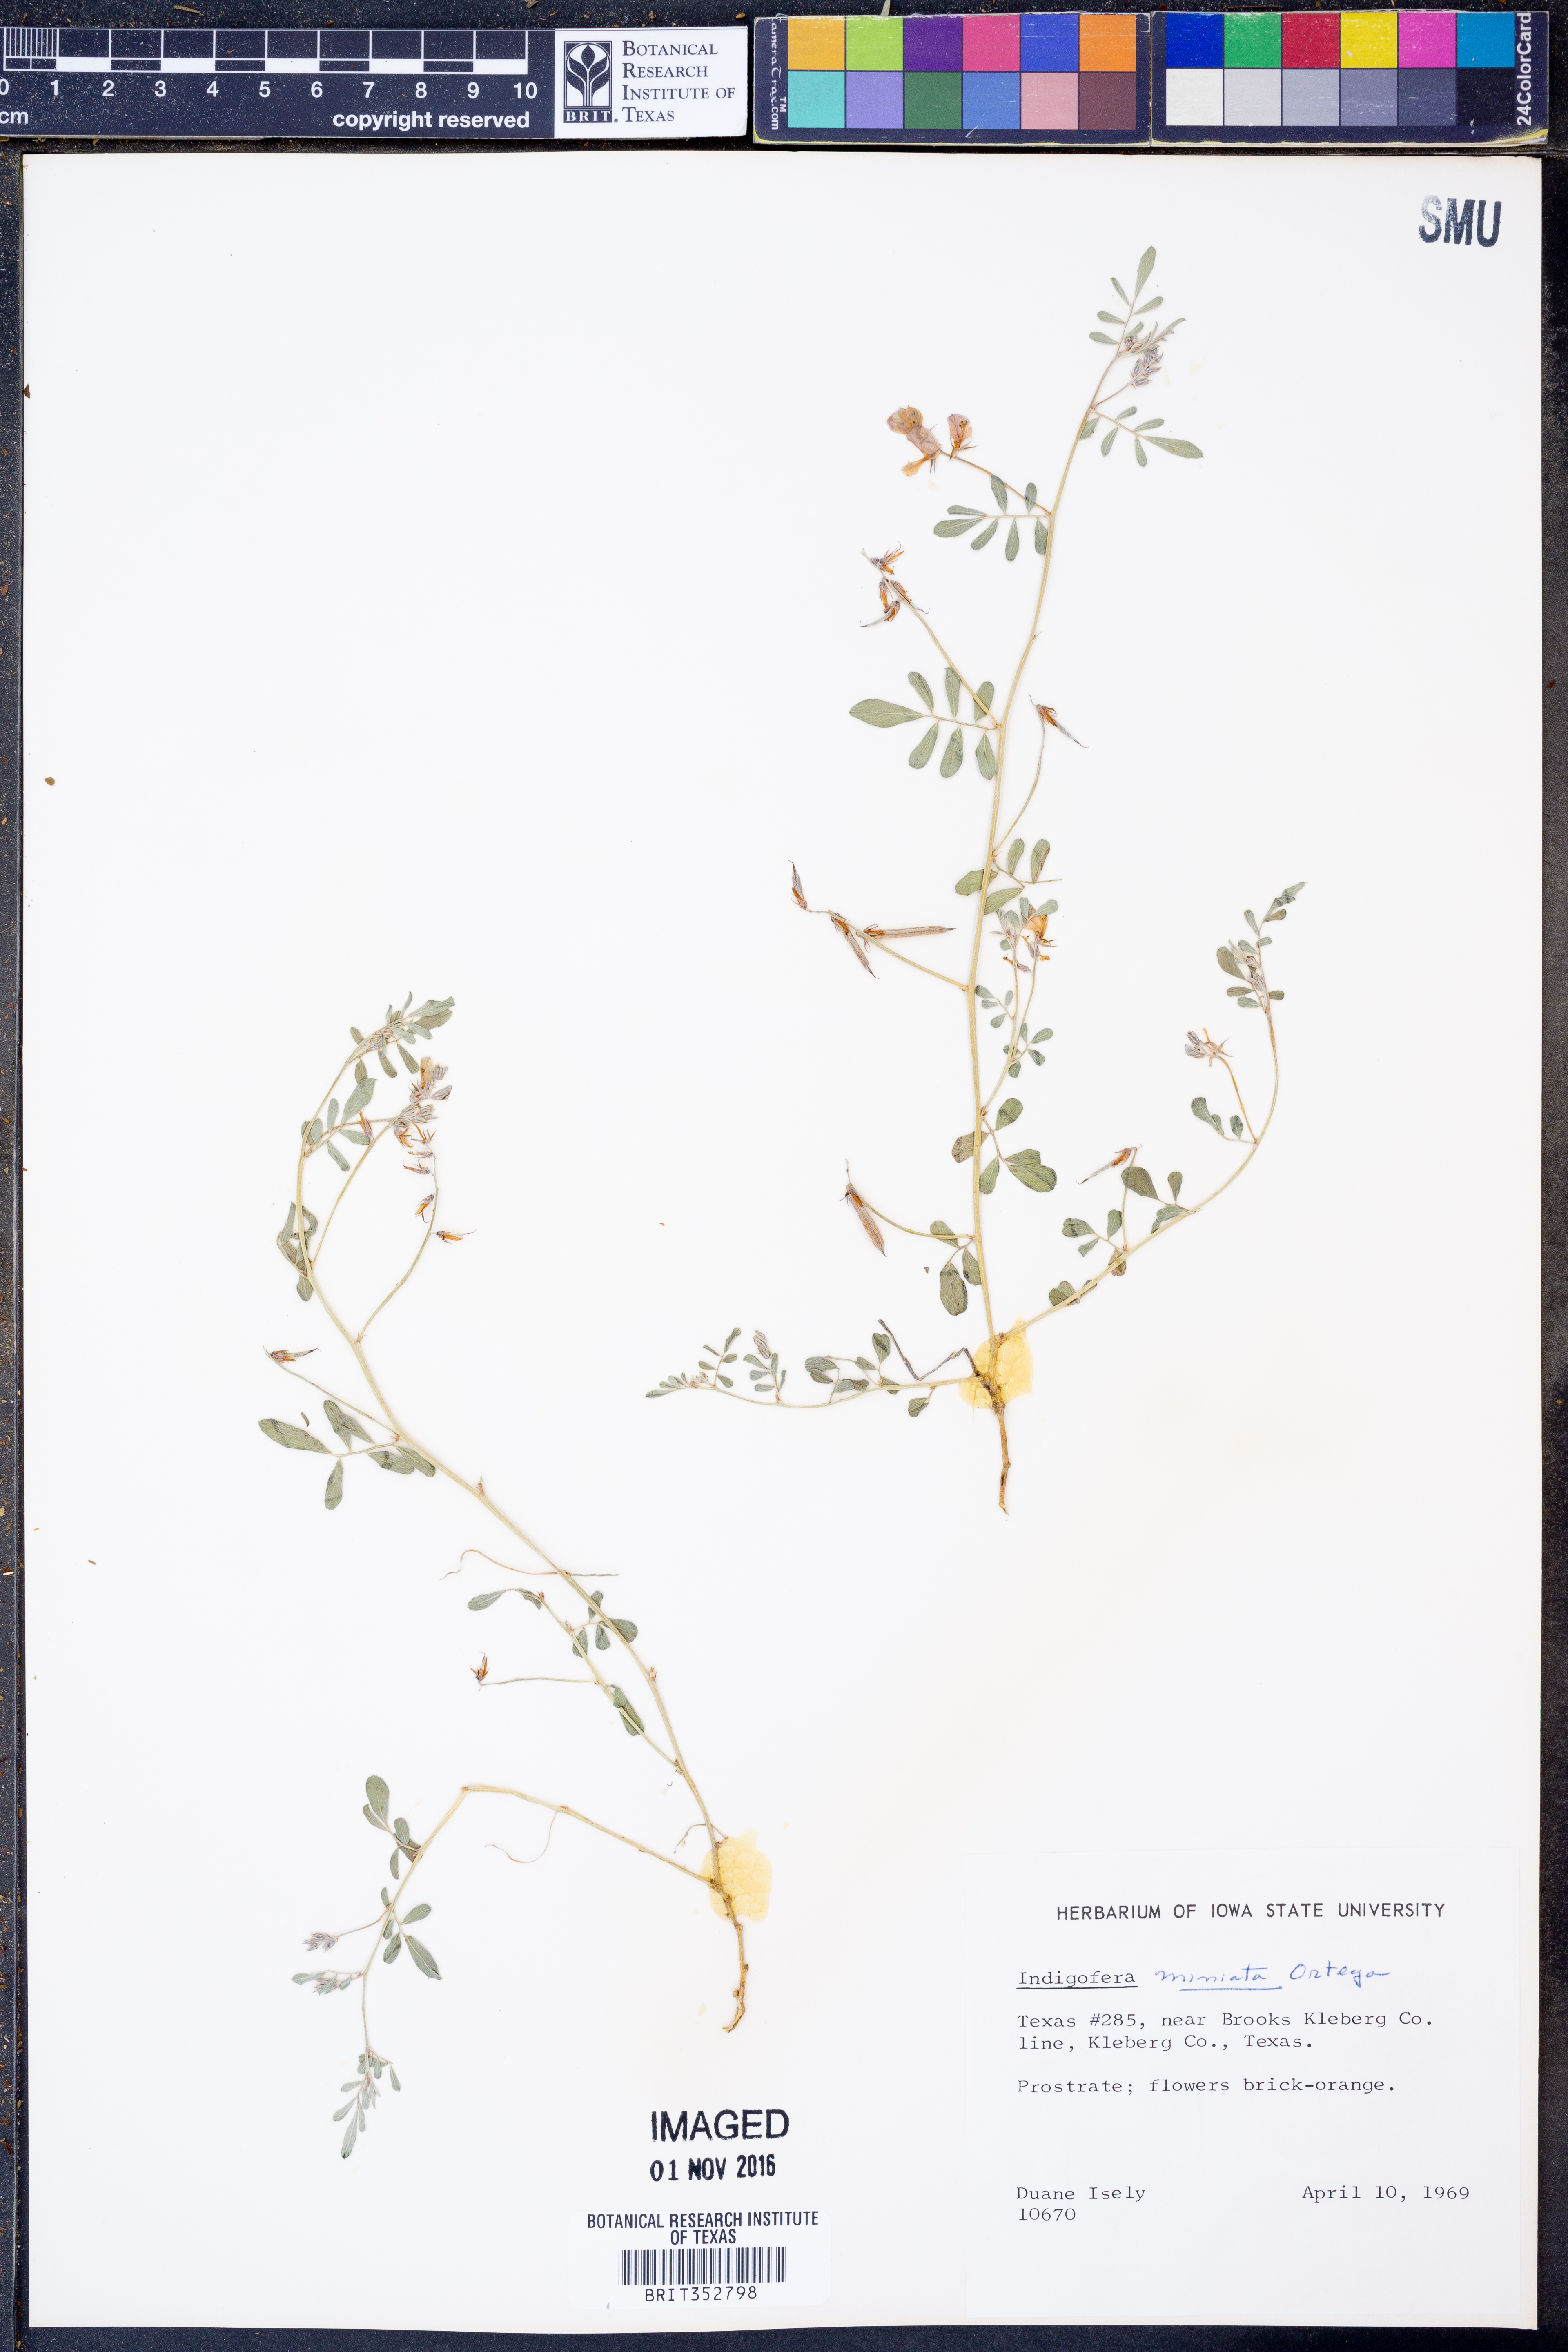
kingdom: Plantae
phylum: Tracheophyta
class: Magnoliopsida
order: Fabales
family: Fabaceae
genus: Indigofera
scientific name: Indigofera miniata
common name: Coast indigo
